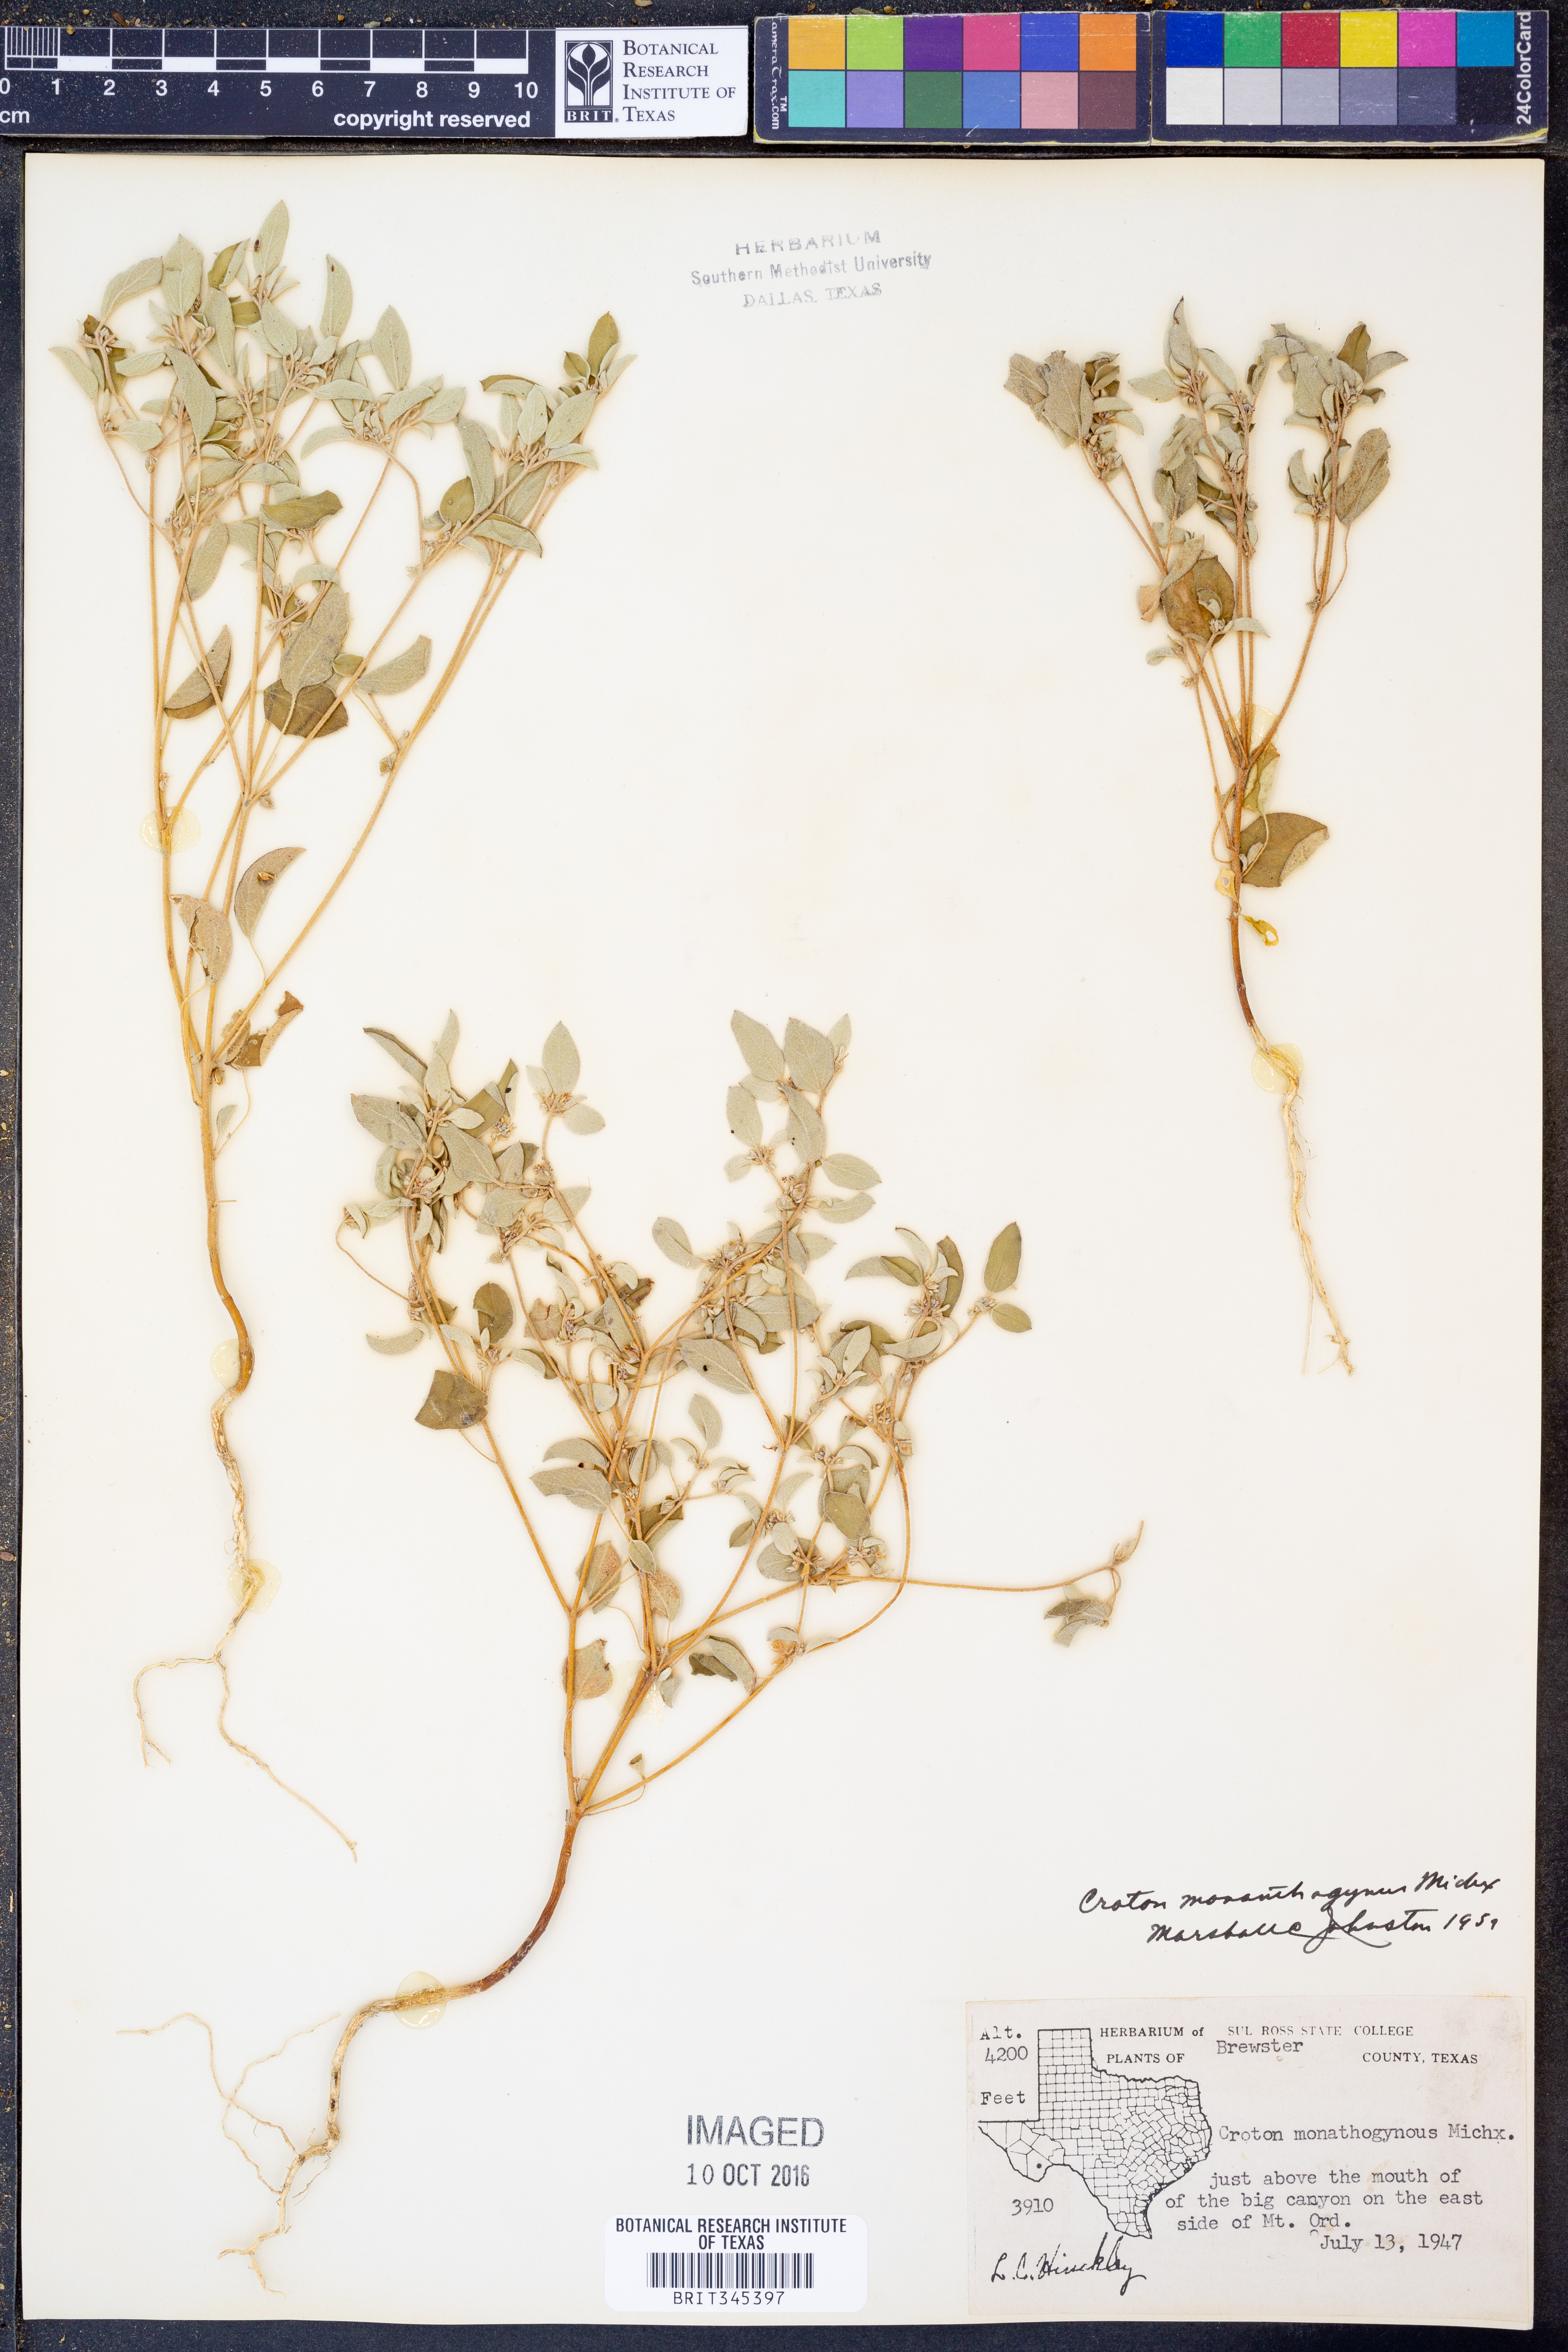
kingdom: Plantae
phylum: Tracheophyta
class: Magnoliopsida
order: Malpighiales
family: Euphorbiaceae
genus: Croton
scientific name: Croton monanthogynus
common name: One-seed croton
